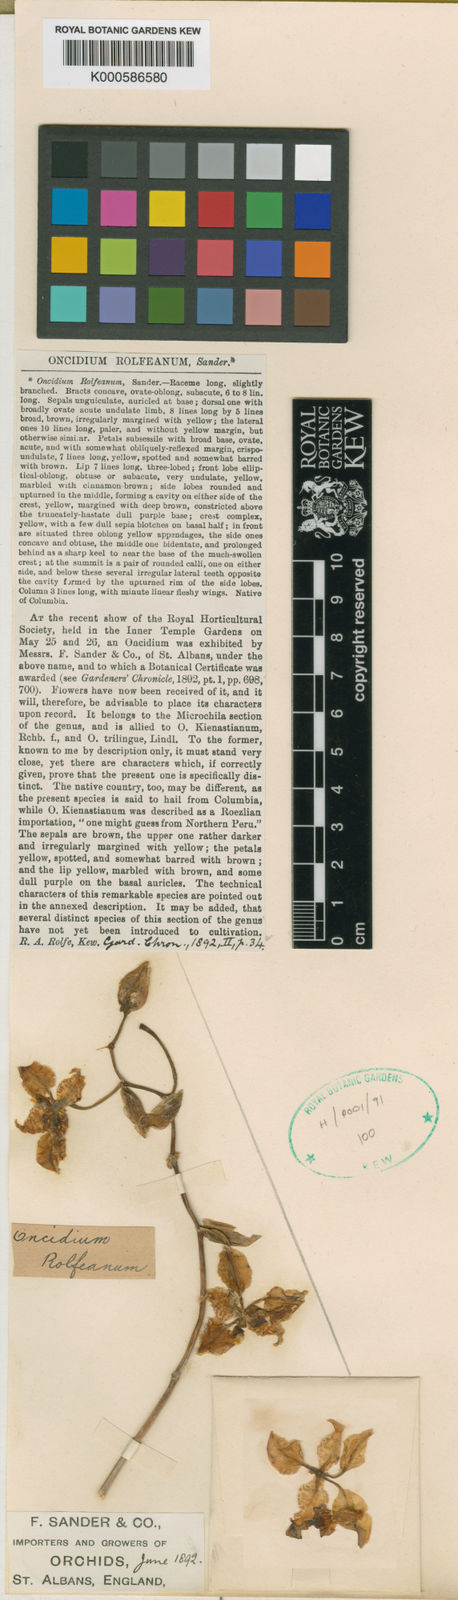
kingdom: Plantae
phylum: Tracheophyta
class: Liliopsida
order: Asparagales
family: Orchidaceae
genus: Cyrtochilum
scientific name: Cyrtochilum trilingue
